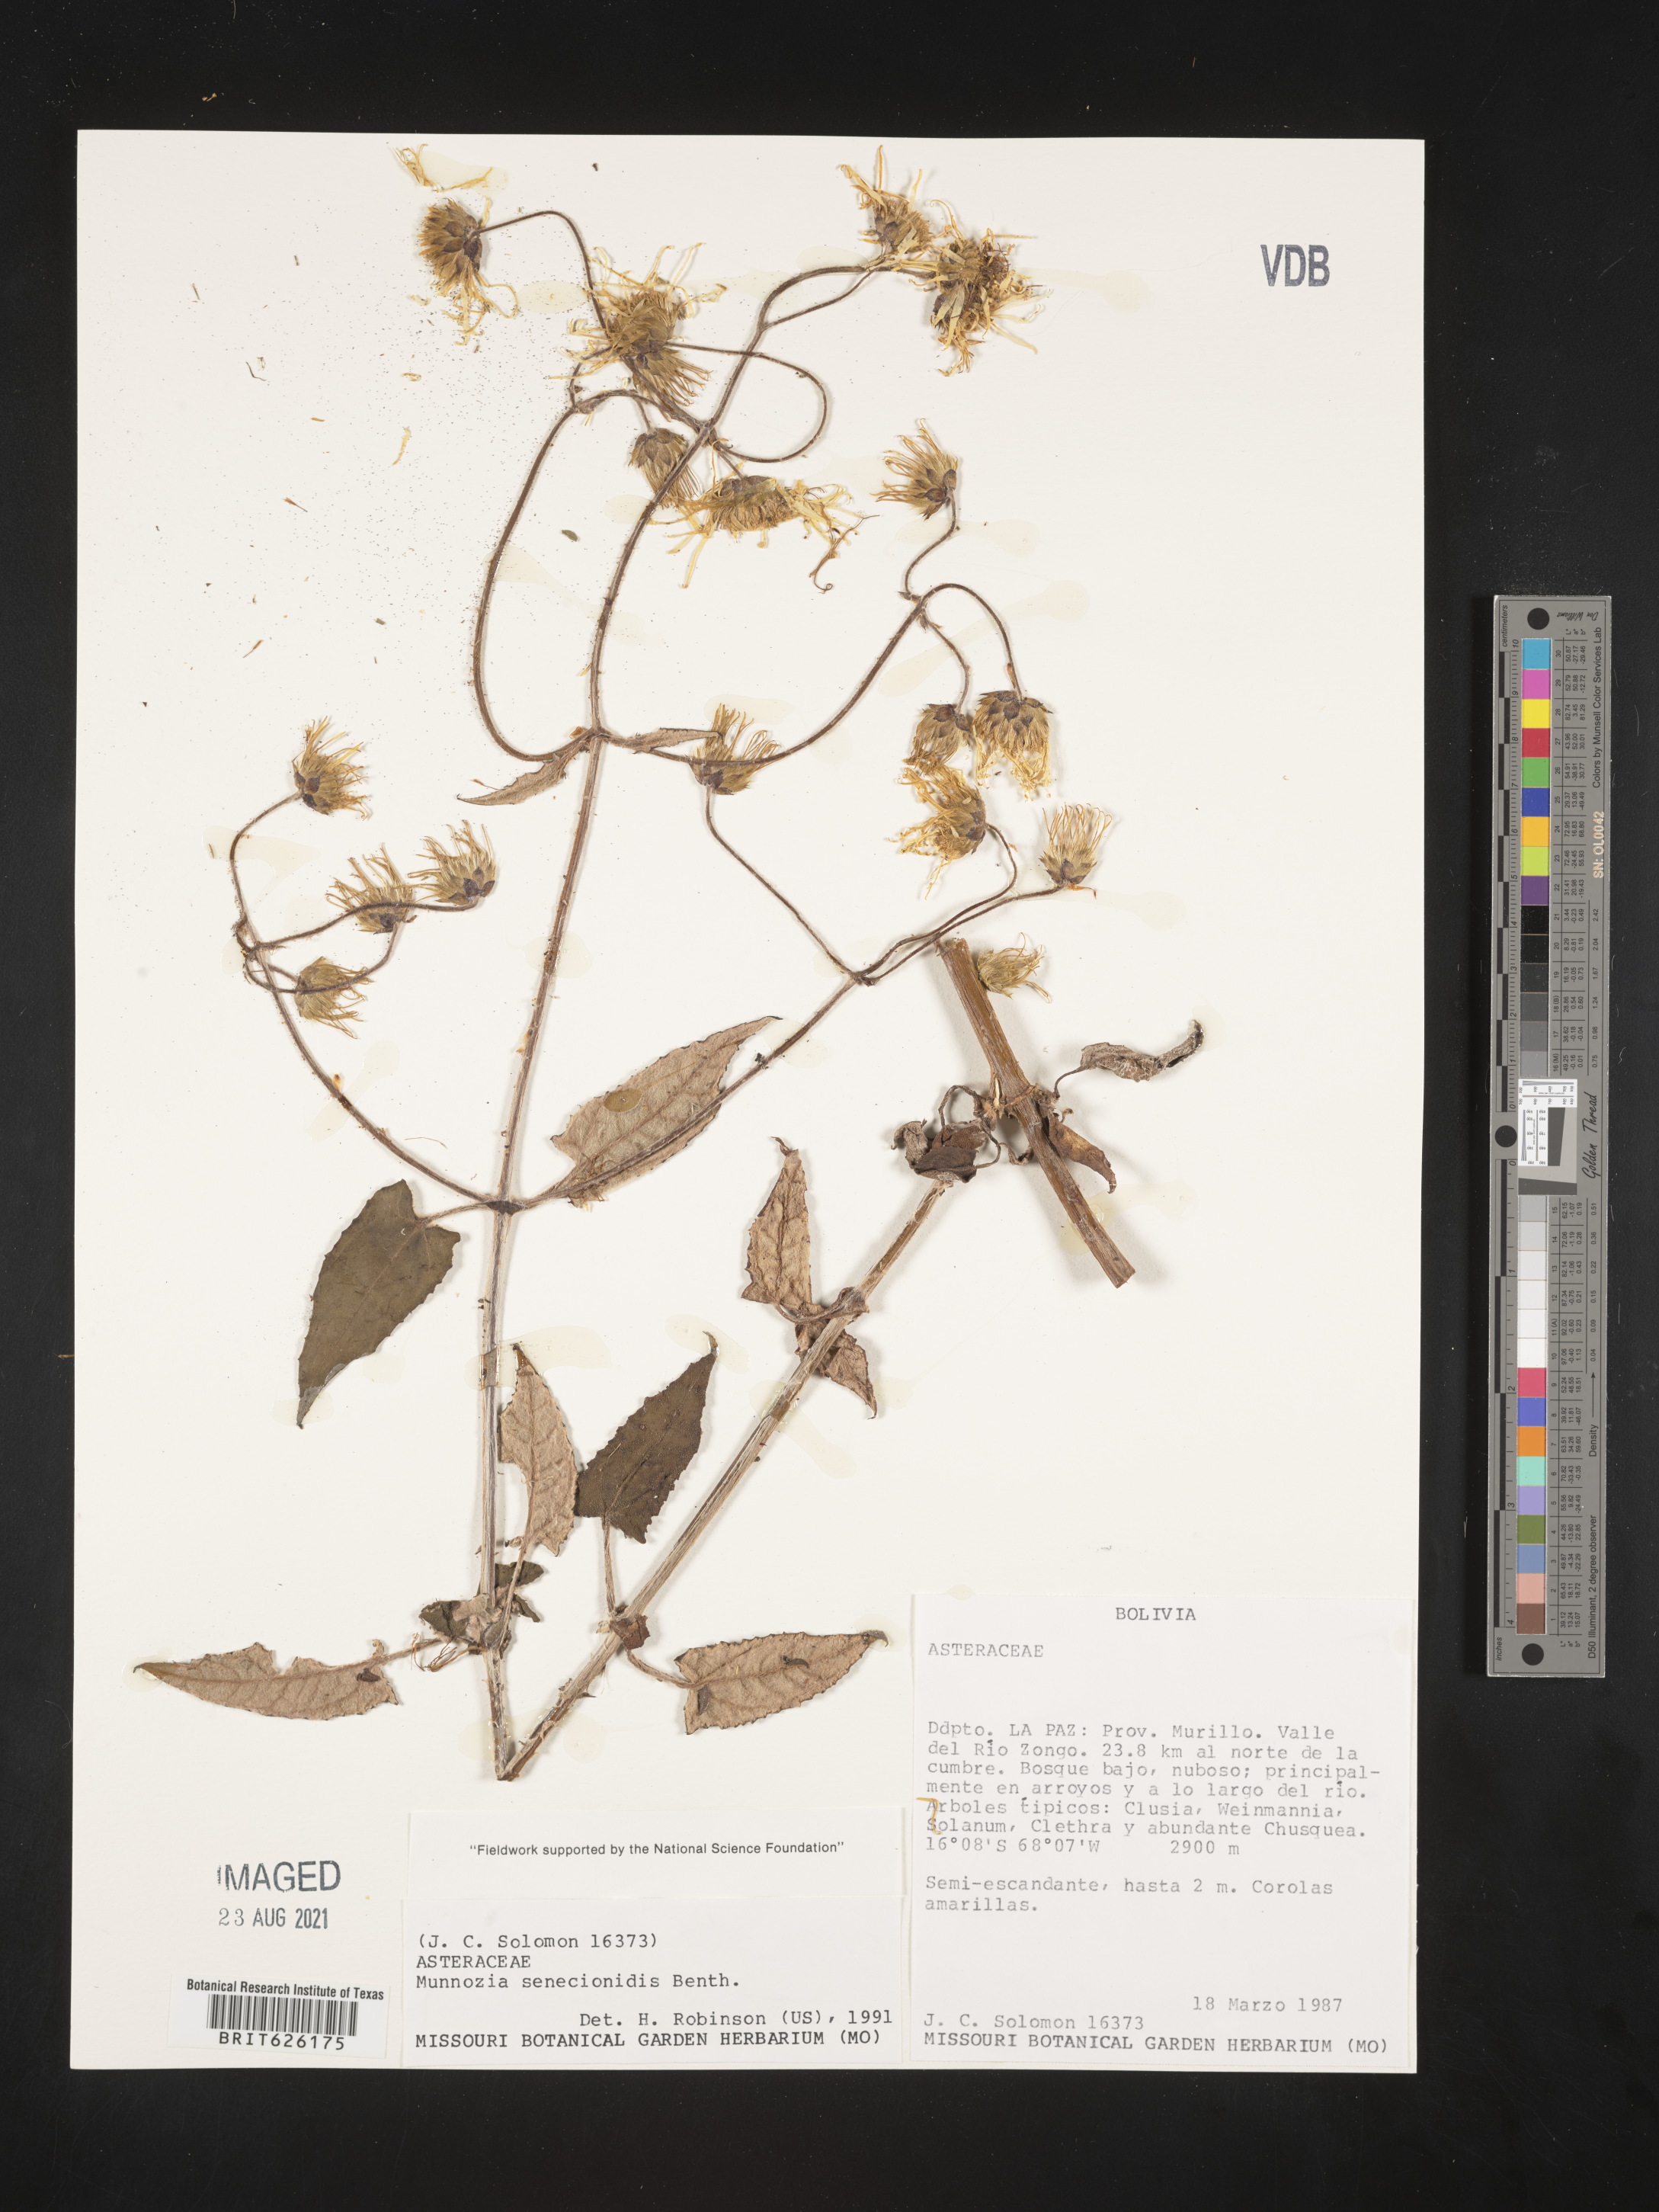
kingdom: Plantae
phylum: Tracheophyta
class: Magnoliopsida
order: Asterales
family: Asteraceae
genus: Munnozia
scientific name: Munnozia senecionidis
